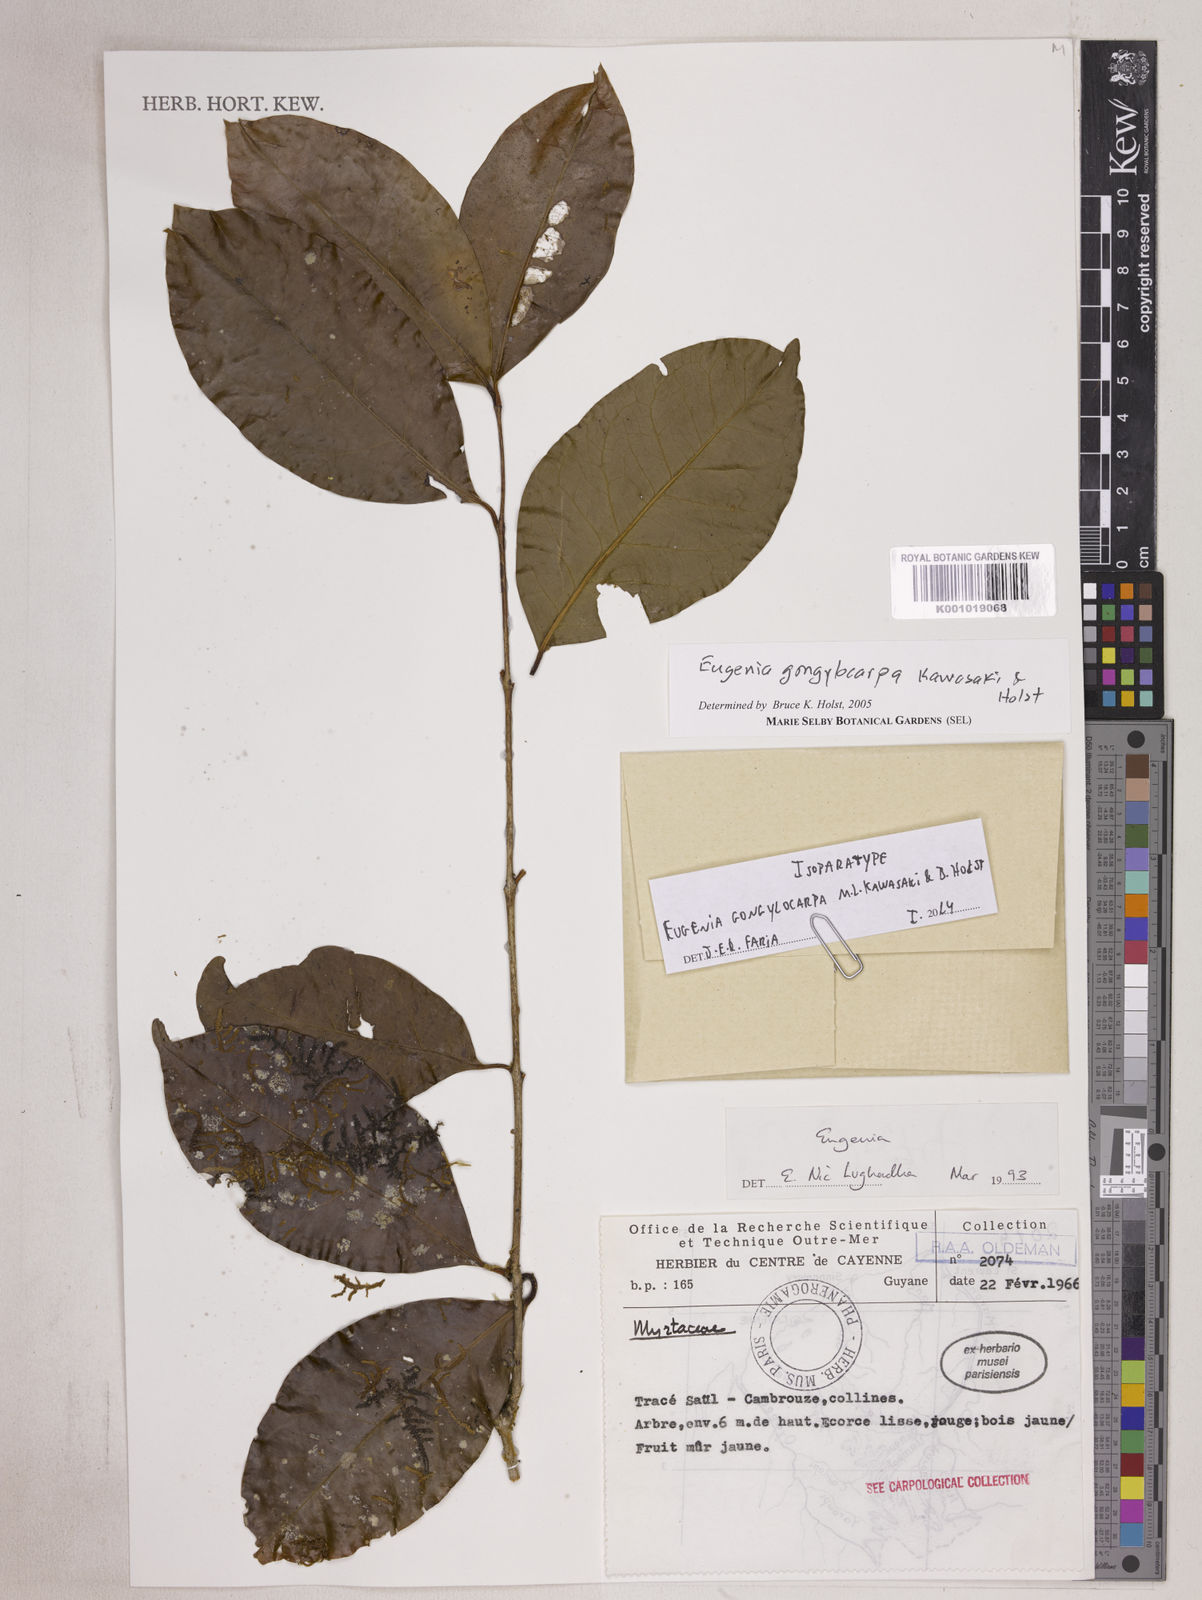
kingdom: Plantae
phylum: Tracheophyta
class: Magnoliopsida
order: Myrtales
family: Myrtaceae
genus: Eugenia
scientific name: Eugenia gongylocarpa
